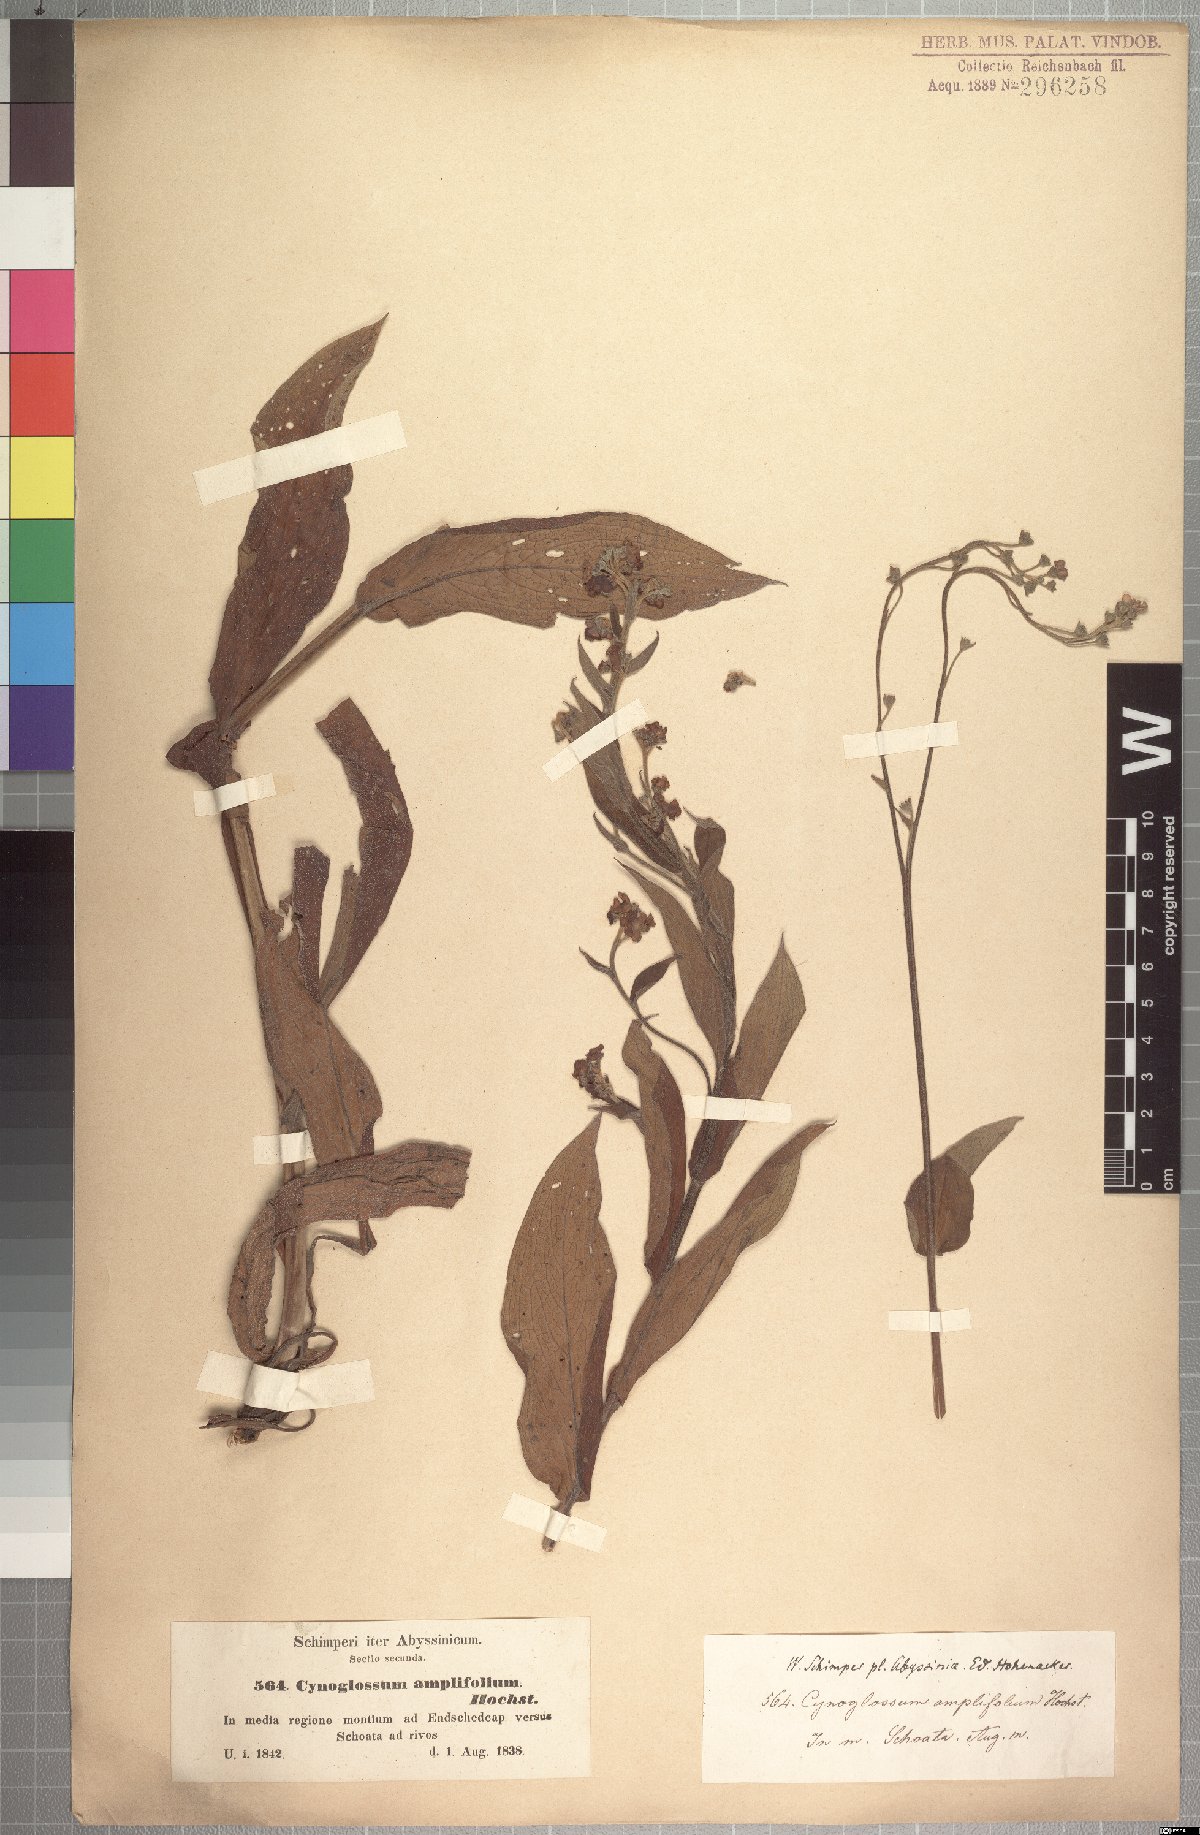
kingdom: Plantae
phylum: Tracheophyta
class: Magnoliopsida
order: Boraginales
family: Boraginaceae
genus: Cynoglossum
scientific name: Cynoglossum amplifolium
